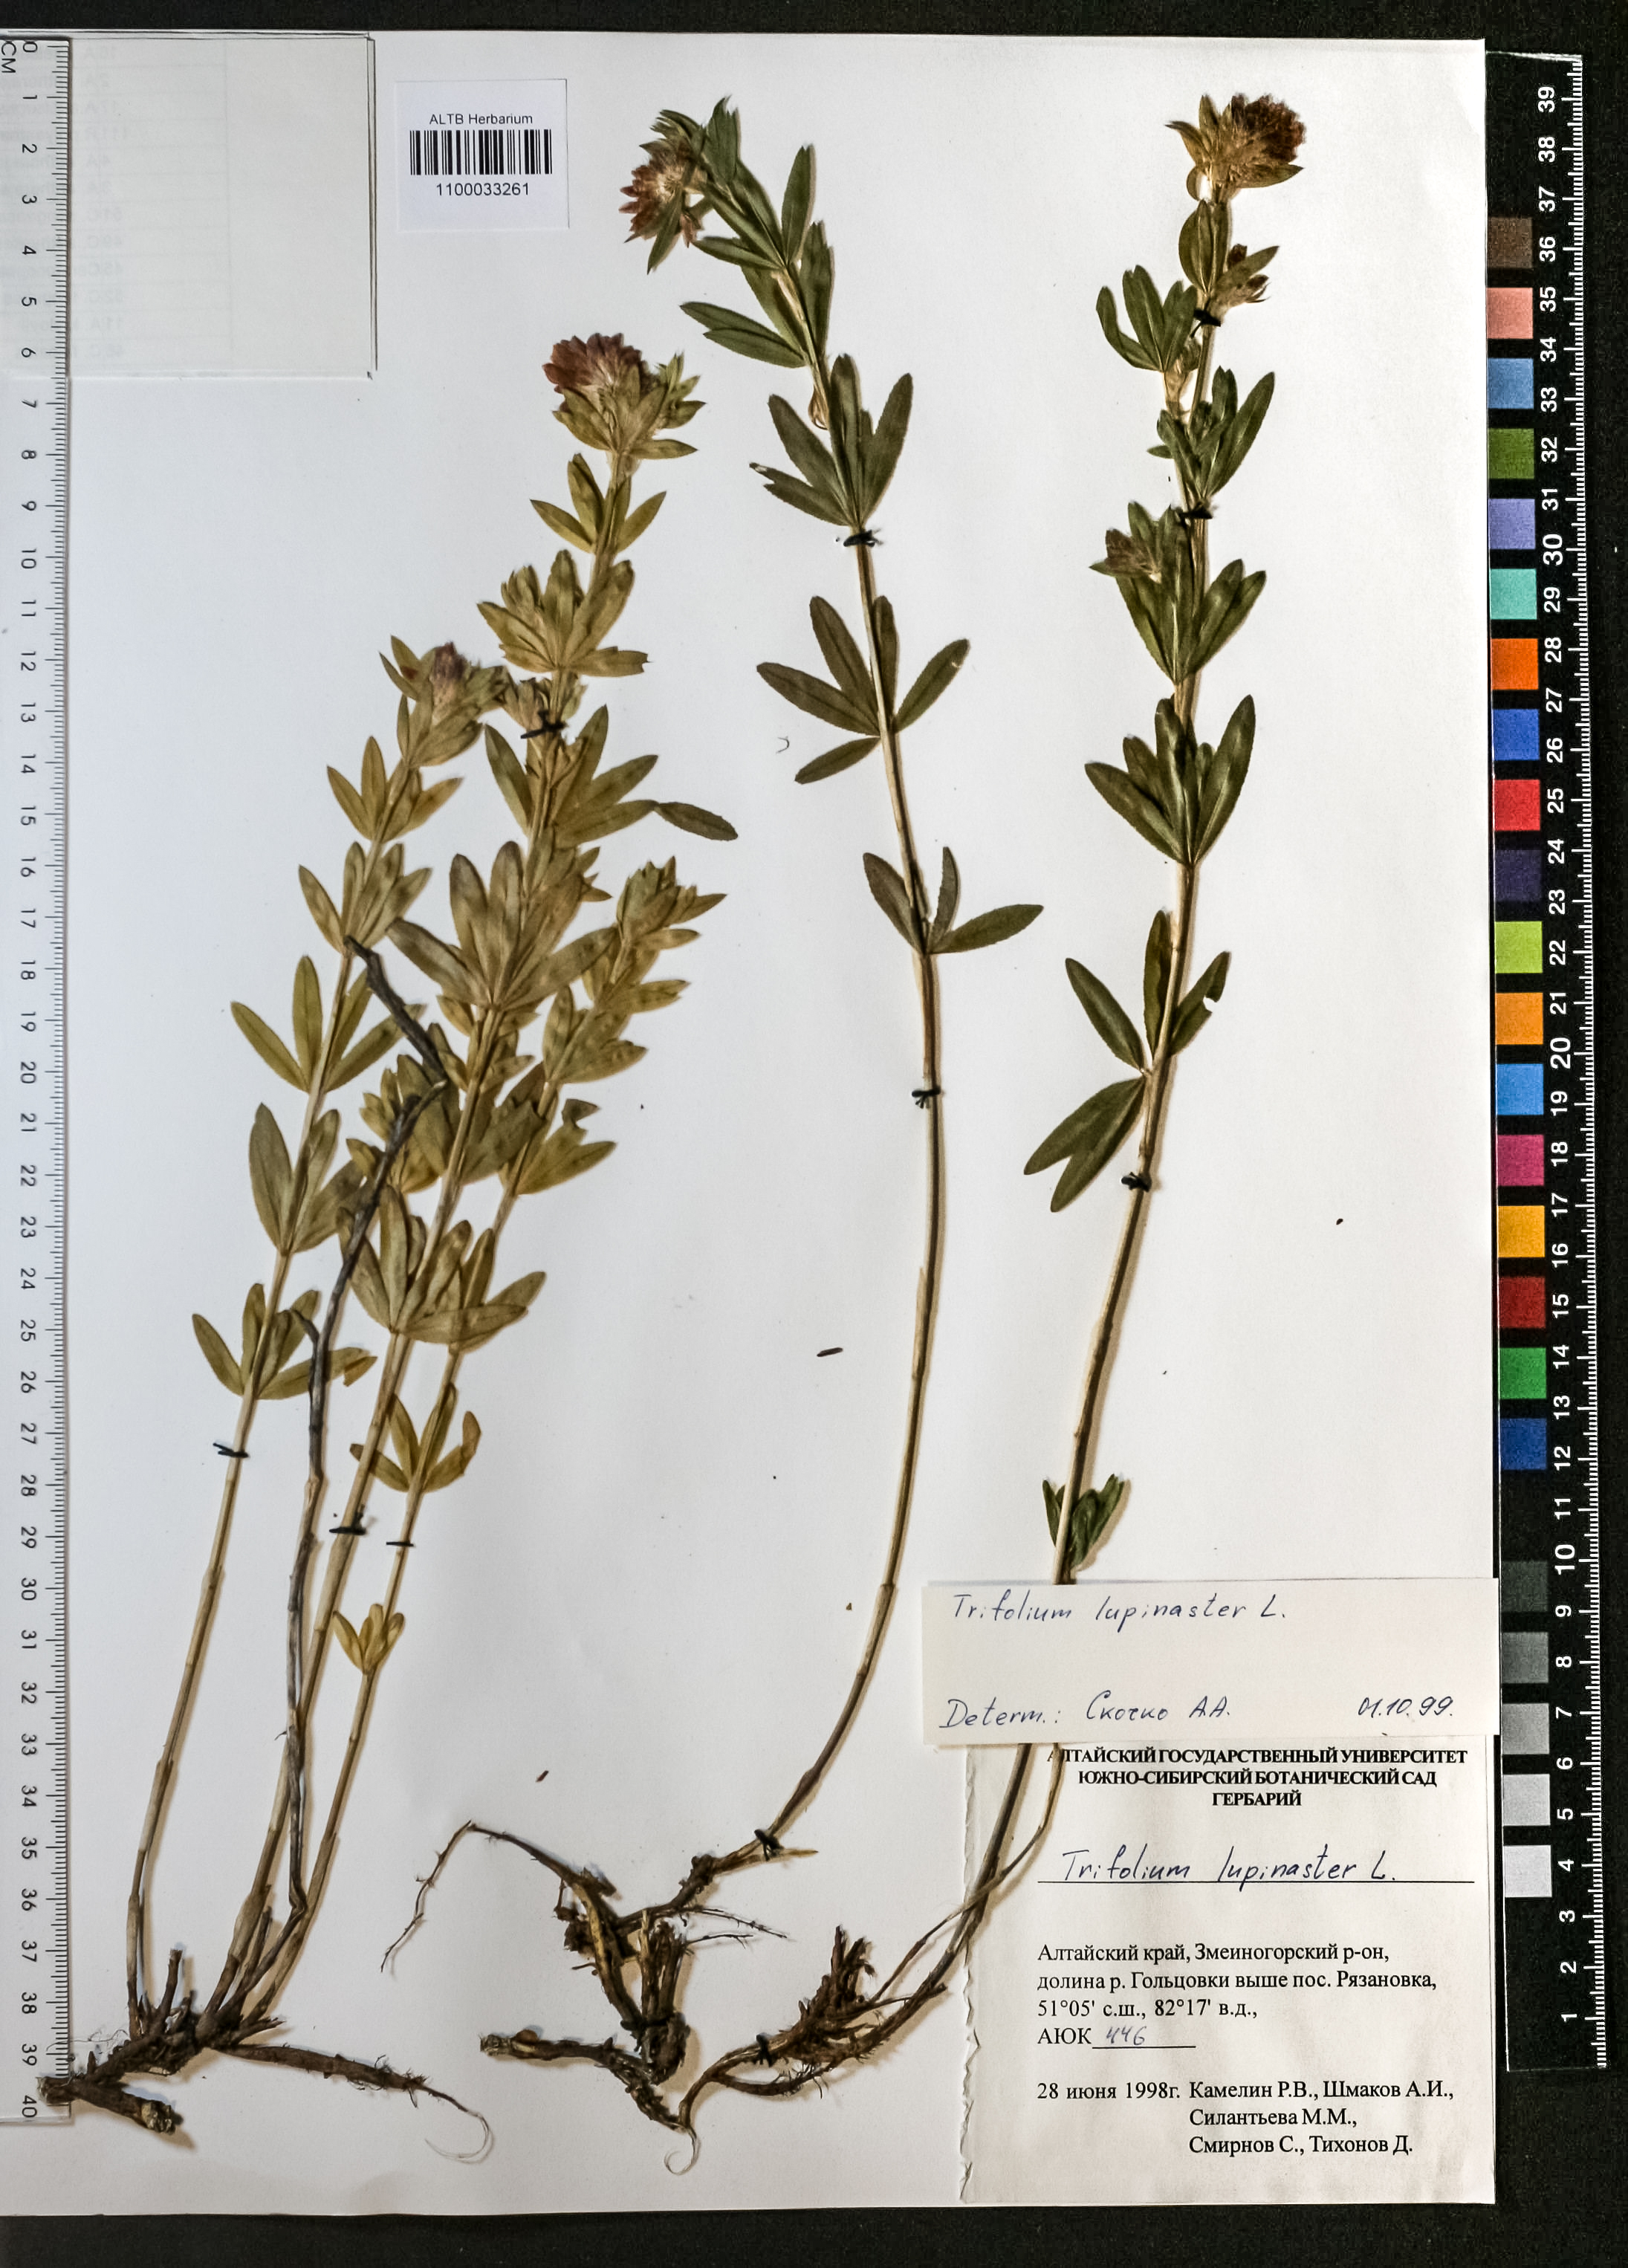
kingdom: Plantae
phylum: Tracheophyta
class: Magnoliopsida
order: Fabales
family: Fabaceae
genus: Trifolium
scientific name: Trifolium lupinaster
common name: Lupine clover
